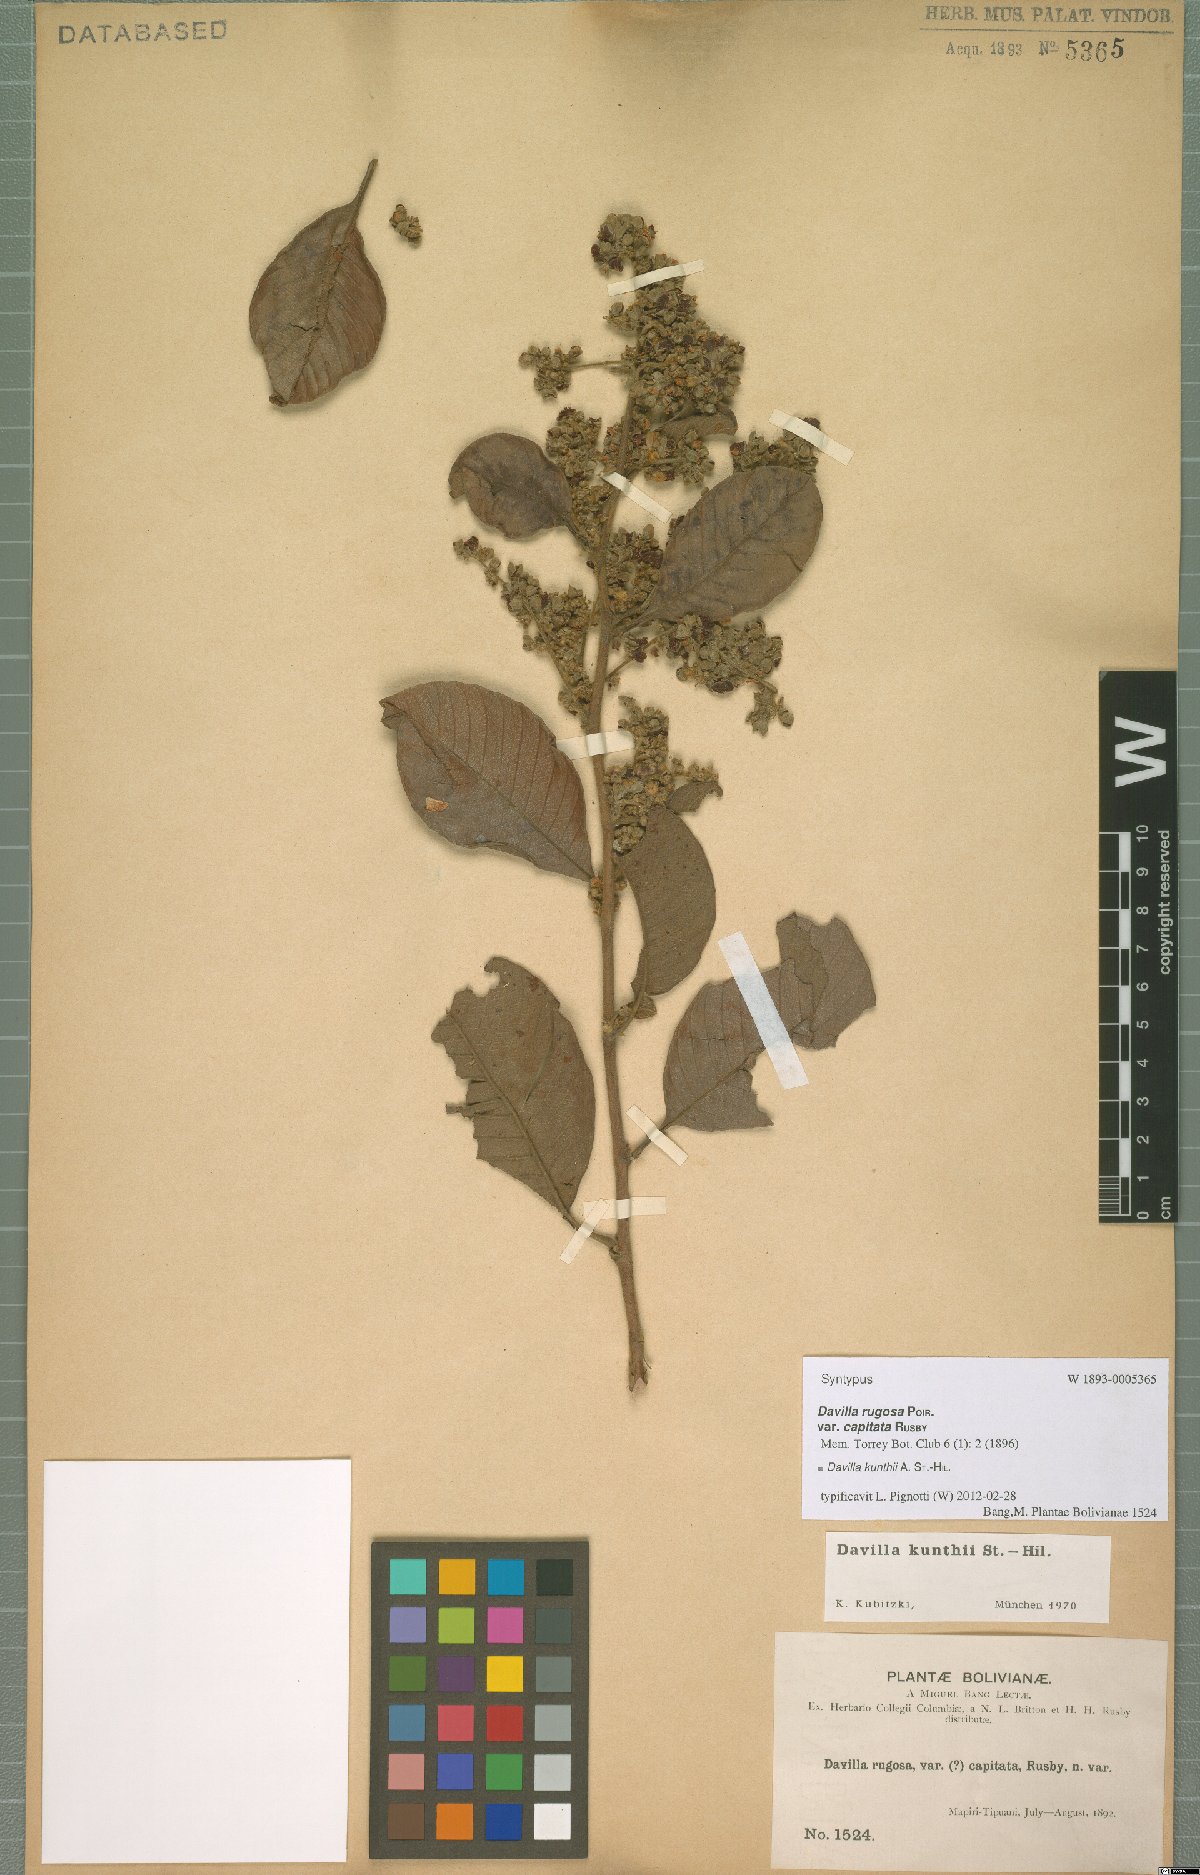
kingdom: Plantae
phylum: Tracheophyta
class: Magnoliopsida
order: Dilleniales
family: Dilleniaceae
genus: Davilla
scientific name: Davilla kunthii
